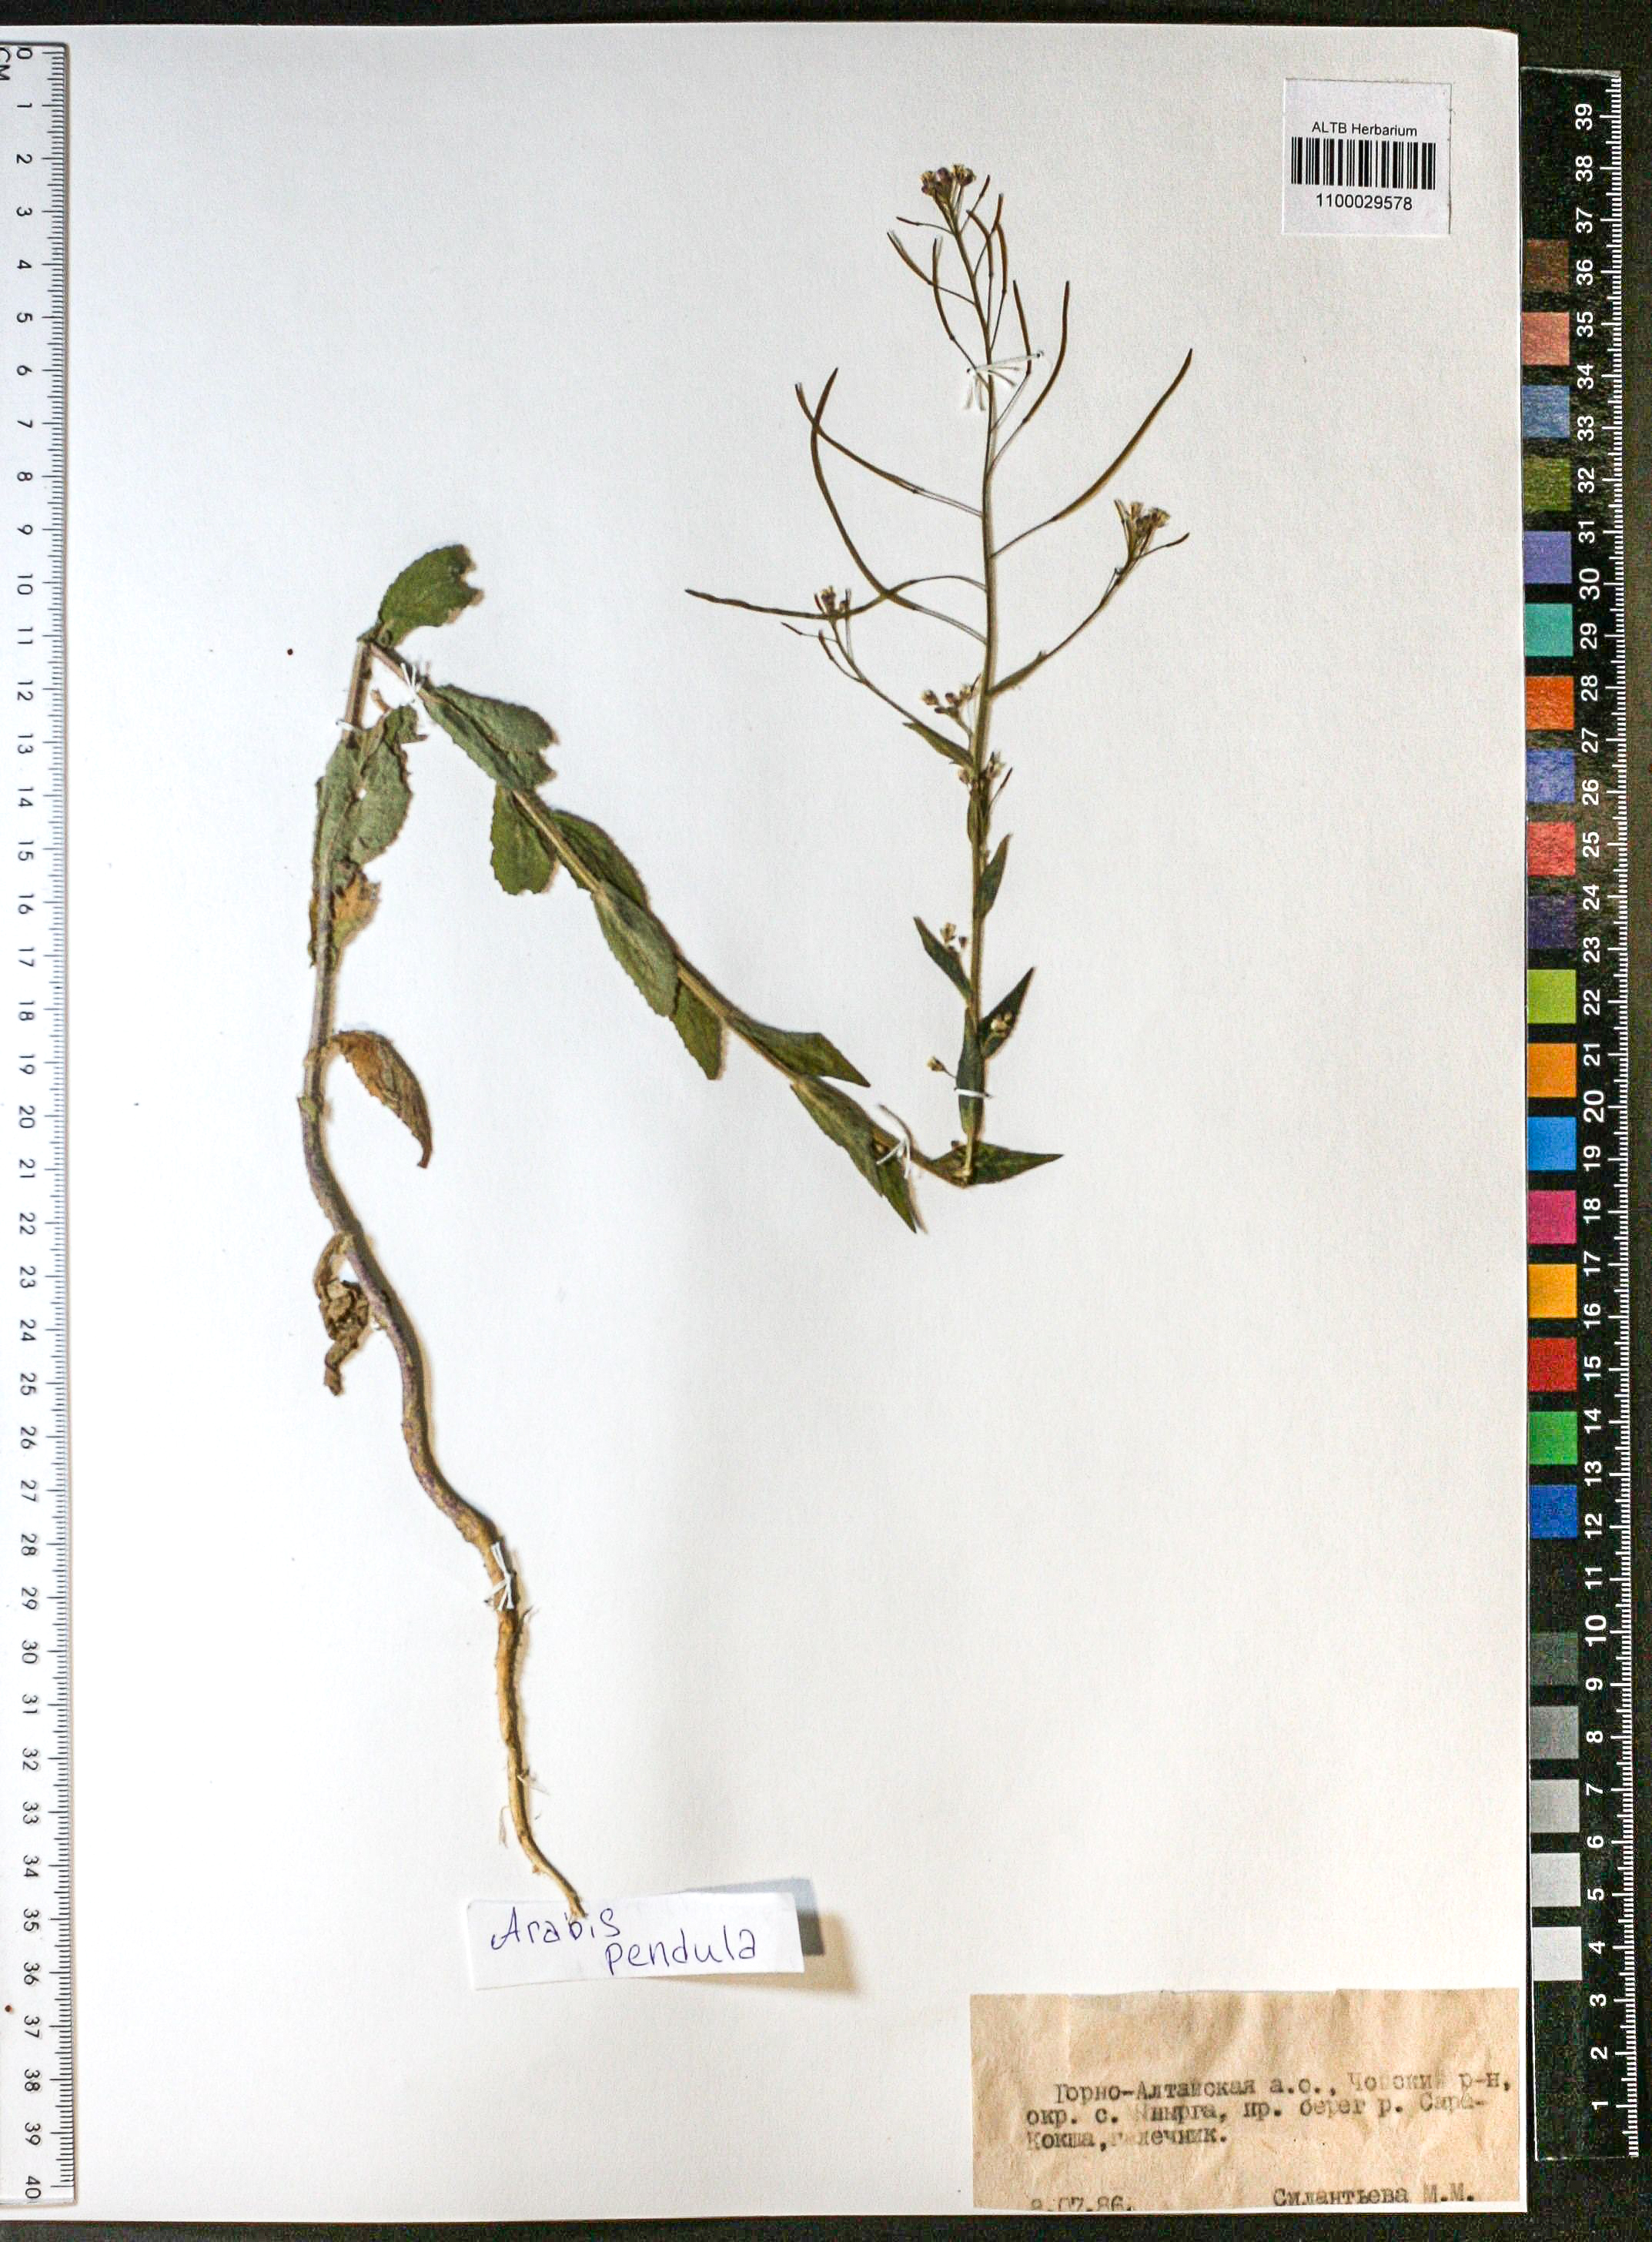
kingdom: Plantae
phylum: Tracheophyta
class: Magnoliopsida
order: Brassicales
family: Brassicaceae
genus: Catolobus
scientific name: Catolobus pendulus
